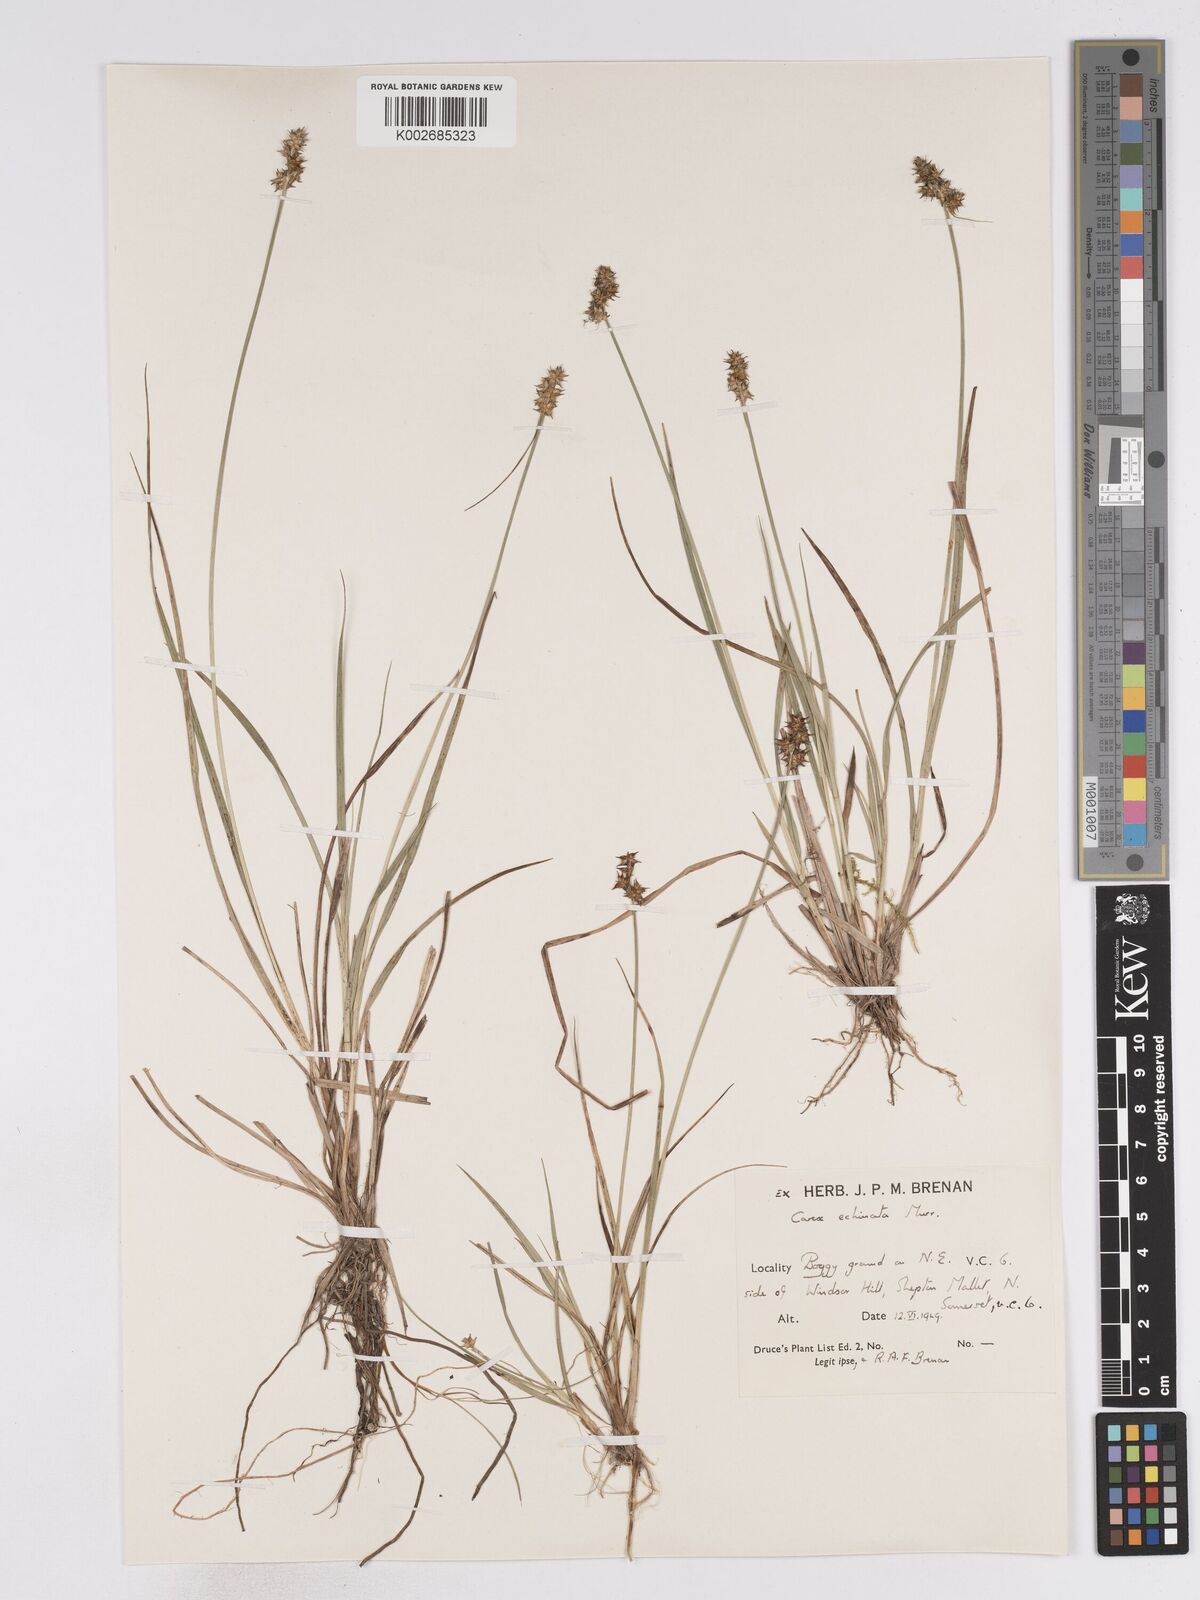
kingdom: Plantae
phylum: Tracheophyta
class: Liliopsida
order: Poales
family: Cyperaceae
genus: Carex
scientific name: Carex echinata
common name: Star sedge
